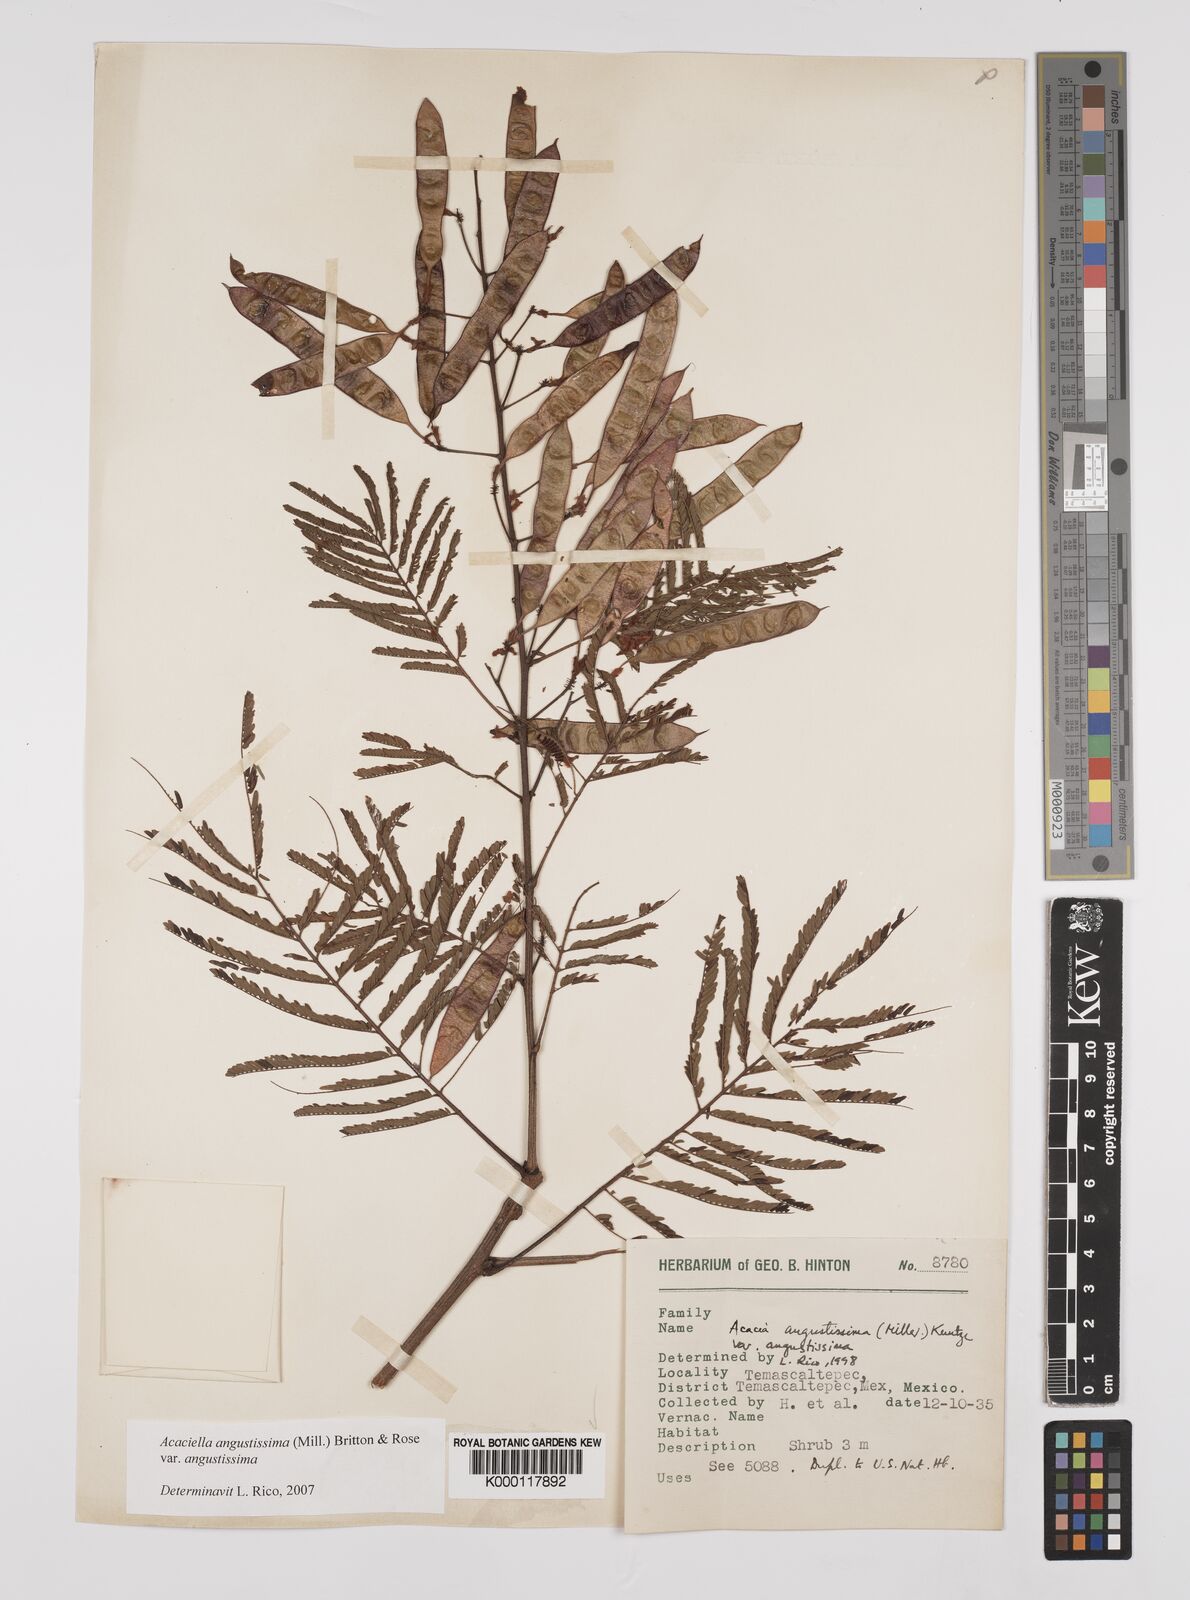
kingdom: Plantae
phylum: Tracheophyta
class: Magnoliopsida
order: Fabales
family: Fabaceae
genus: Acaciella
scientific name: Acaciella angustissima
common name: Prairie acacia
